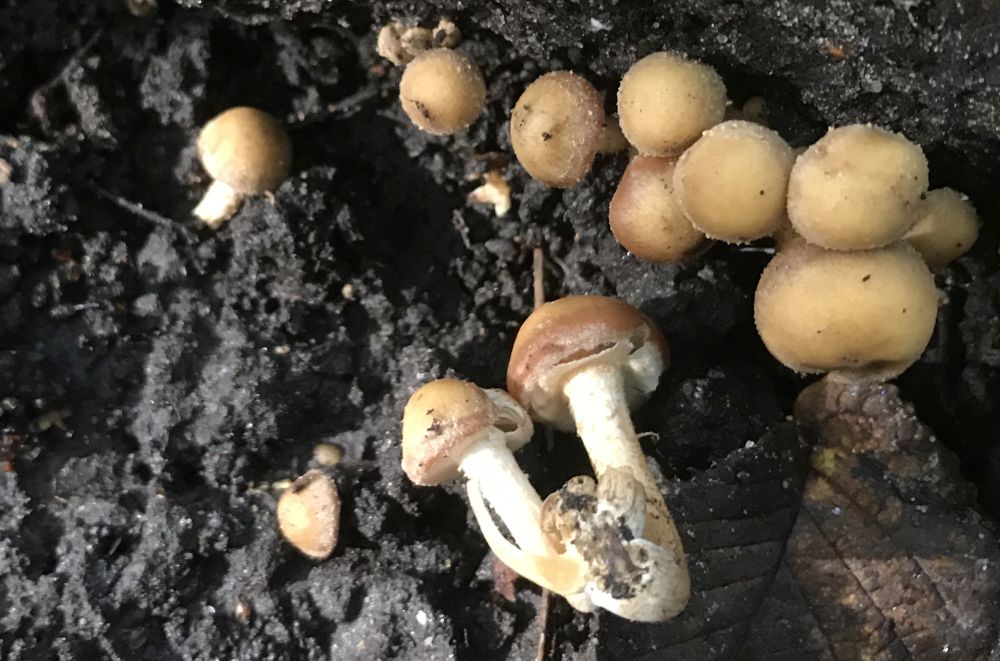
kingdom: Fungi
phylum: Basidiomycota
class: Agaricomycetes
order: Agaricales
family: Strophariaceae
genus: Kuehneromyces
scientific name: Kuehneromyces mutabilis
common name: foranderlig skælhat
